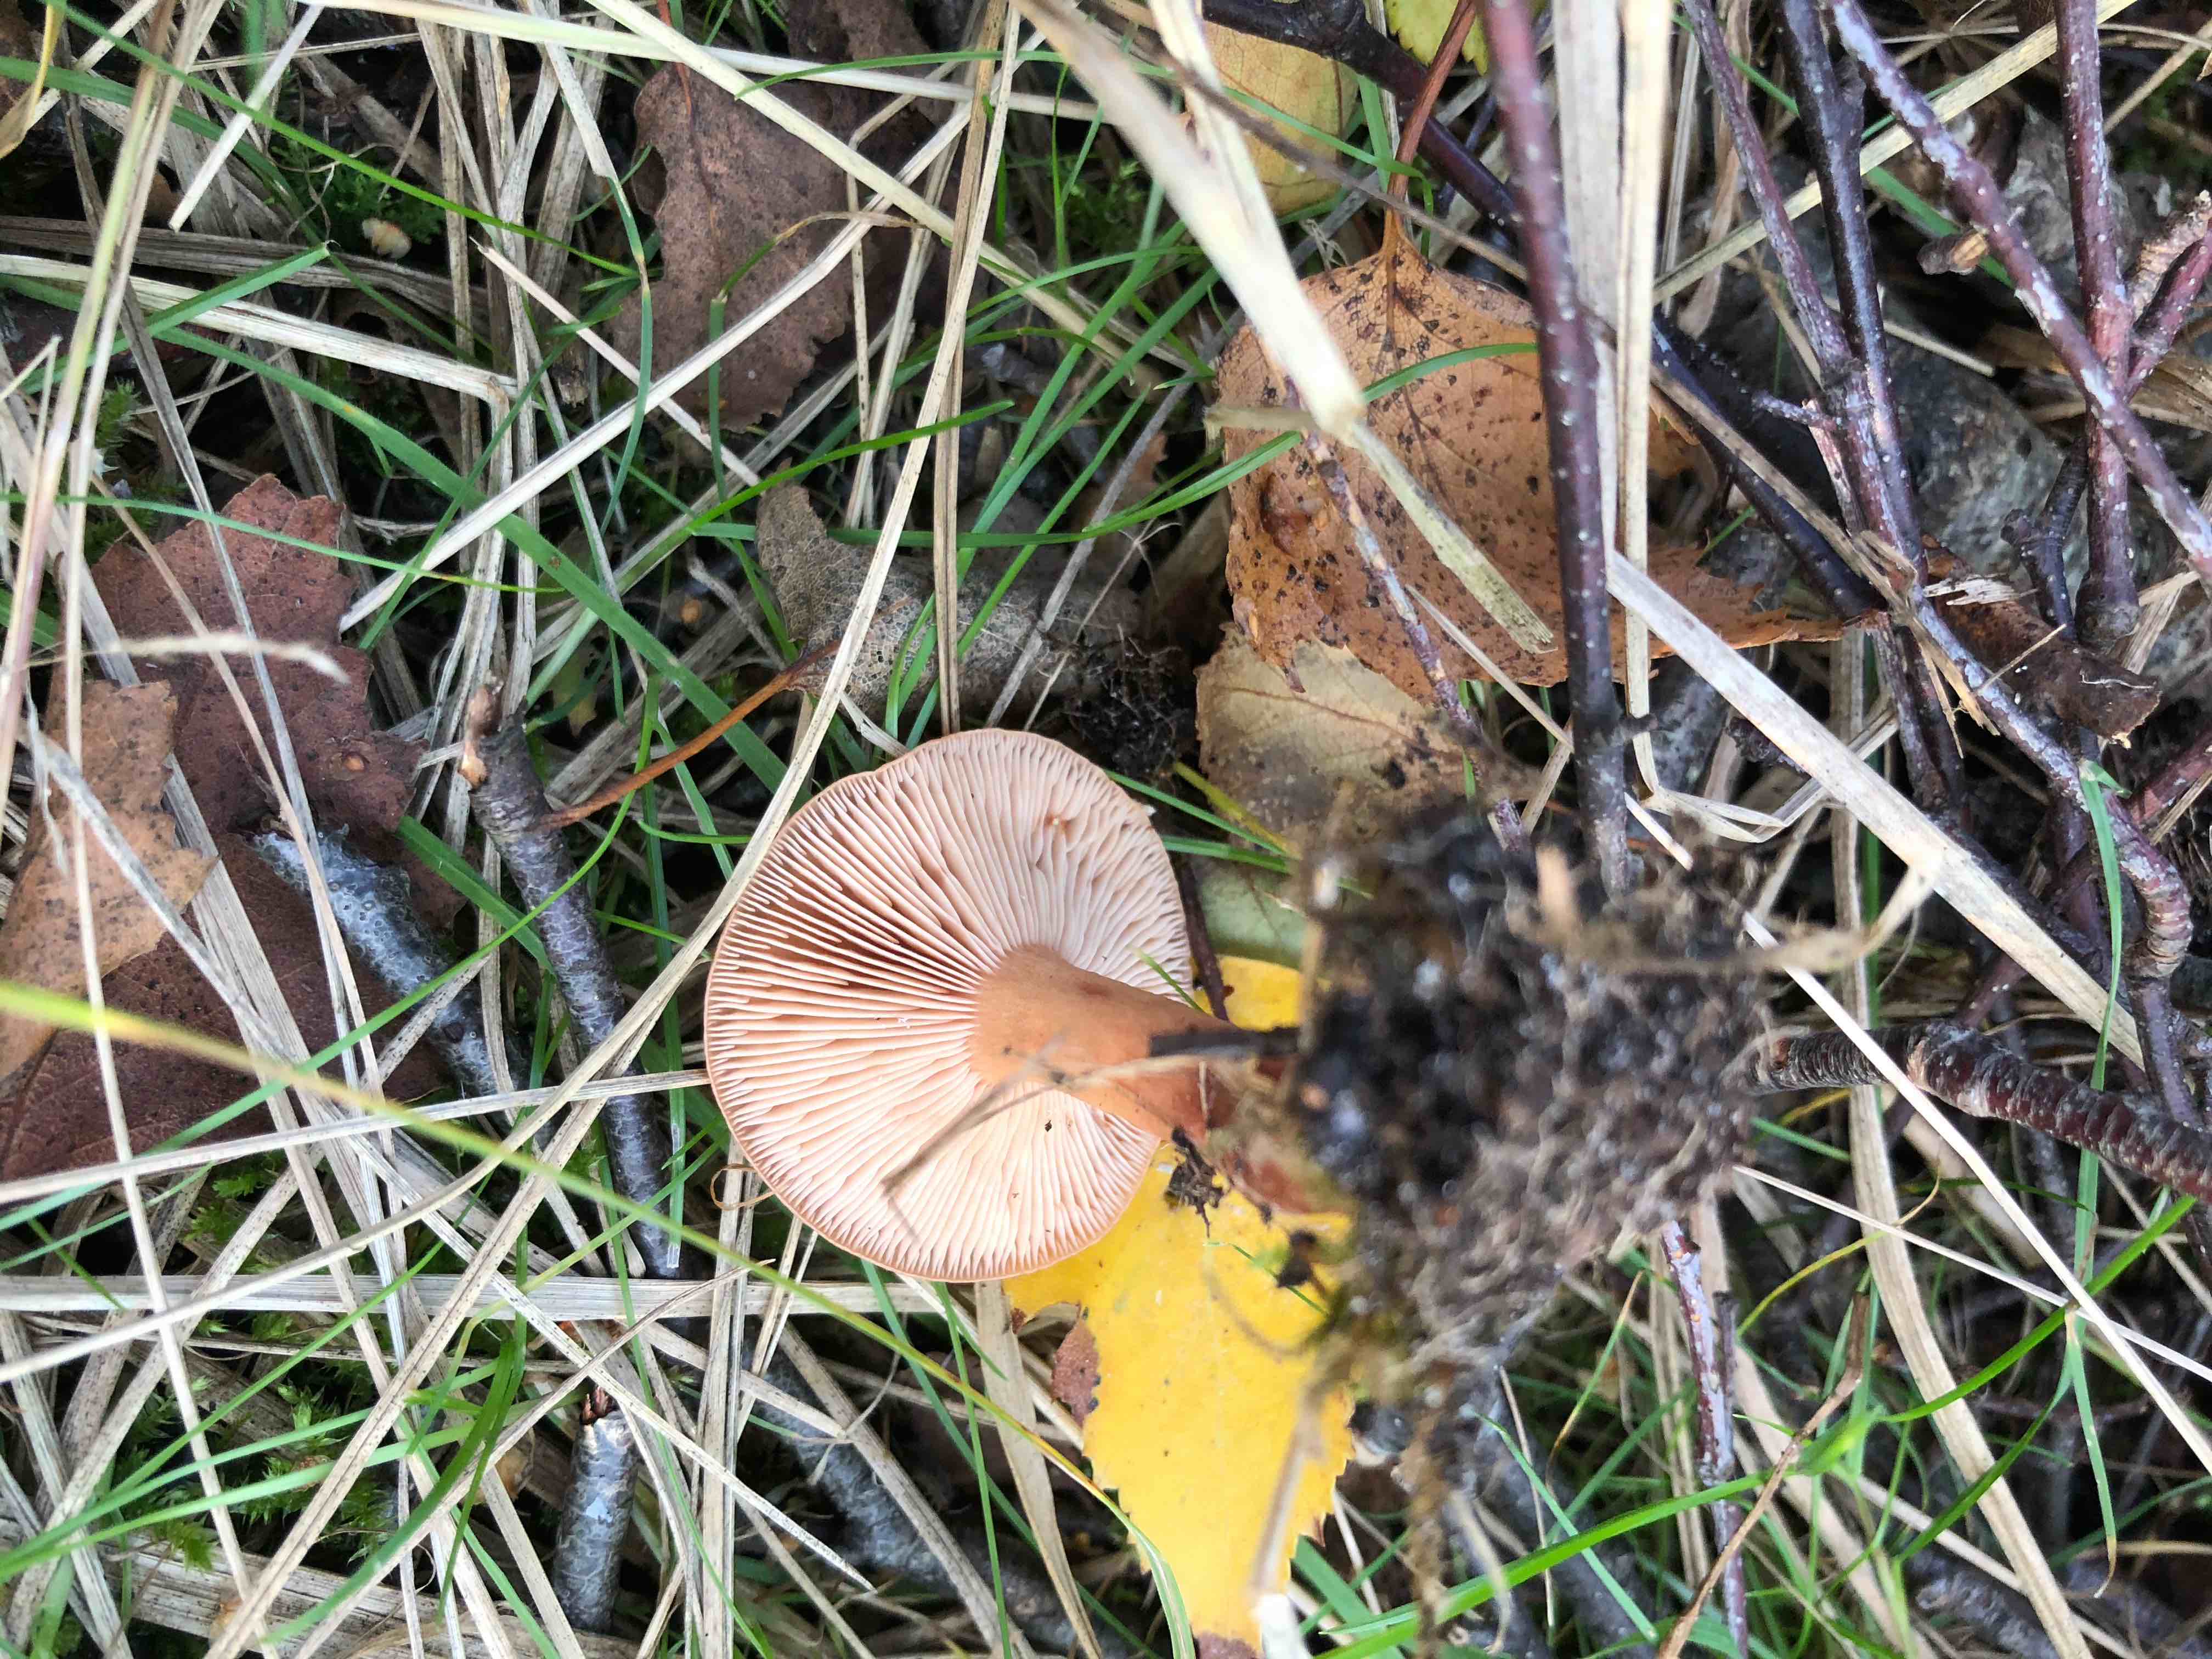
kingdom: Fungi
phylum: Basidiomycota
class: Agaricomycetes
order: Russulales
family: Russulaceae
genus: Lactarius
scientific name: Lactarius
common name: mælkehat
